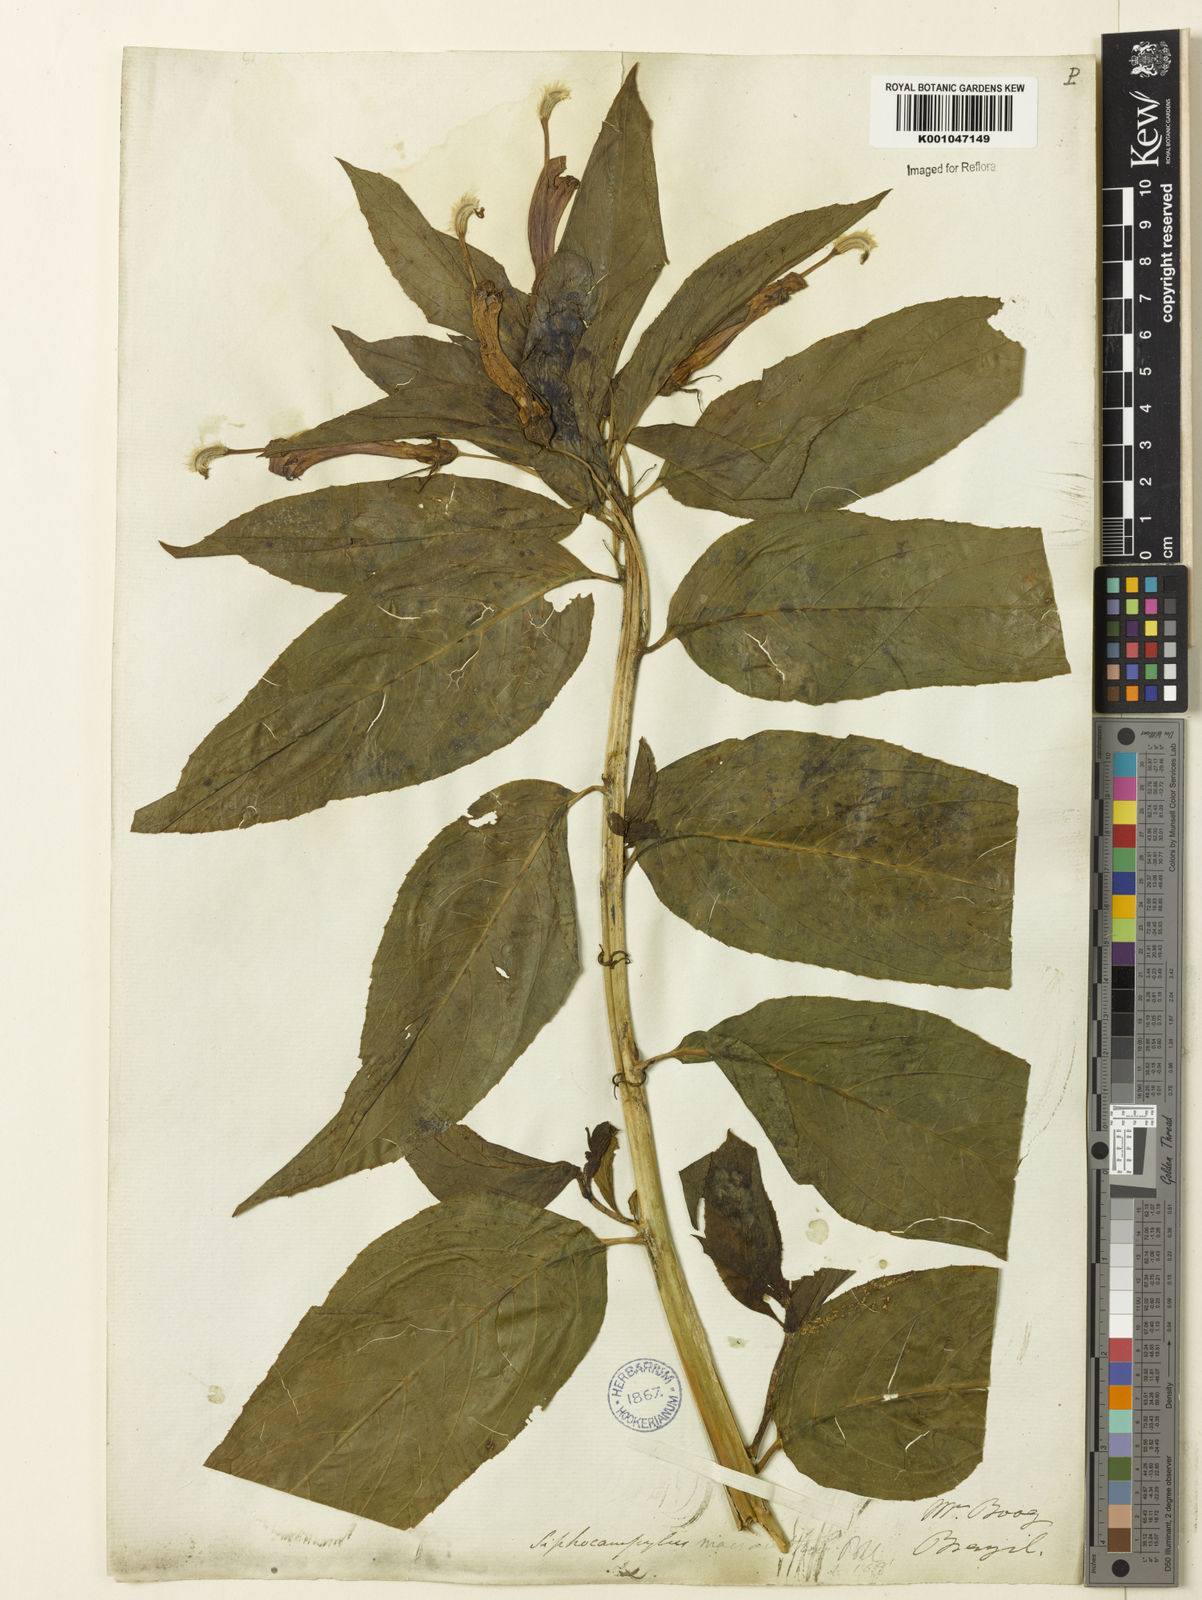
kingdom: Plantae
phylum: Tracheophyta
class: Magnoliopsida
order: Asterales
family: Campanulaceae
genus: Centropogon
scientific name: Centropogon cornutus
